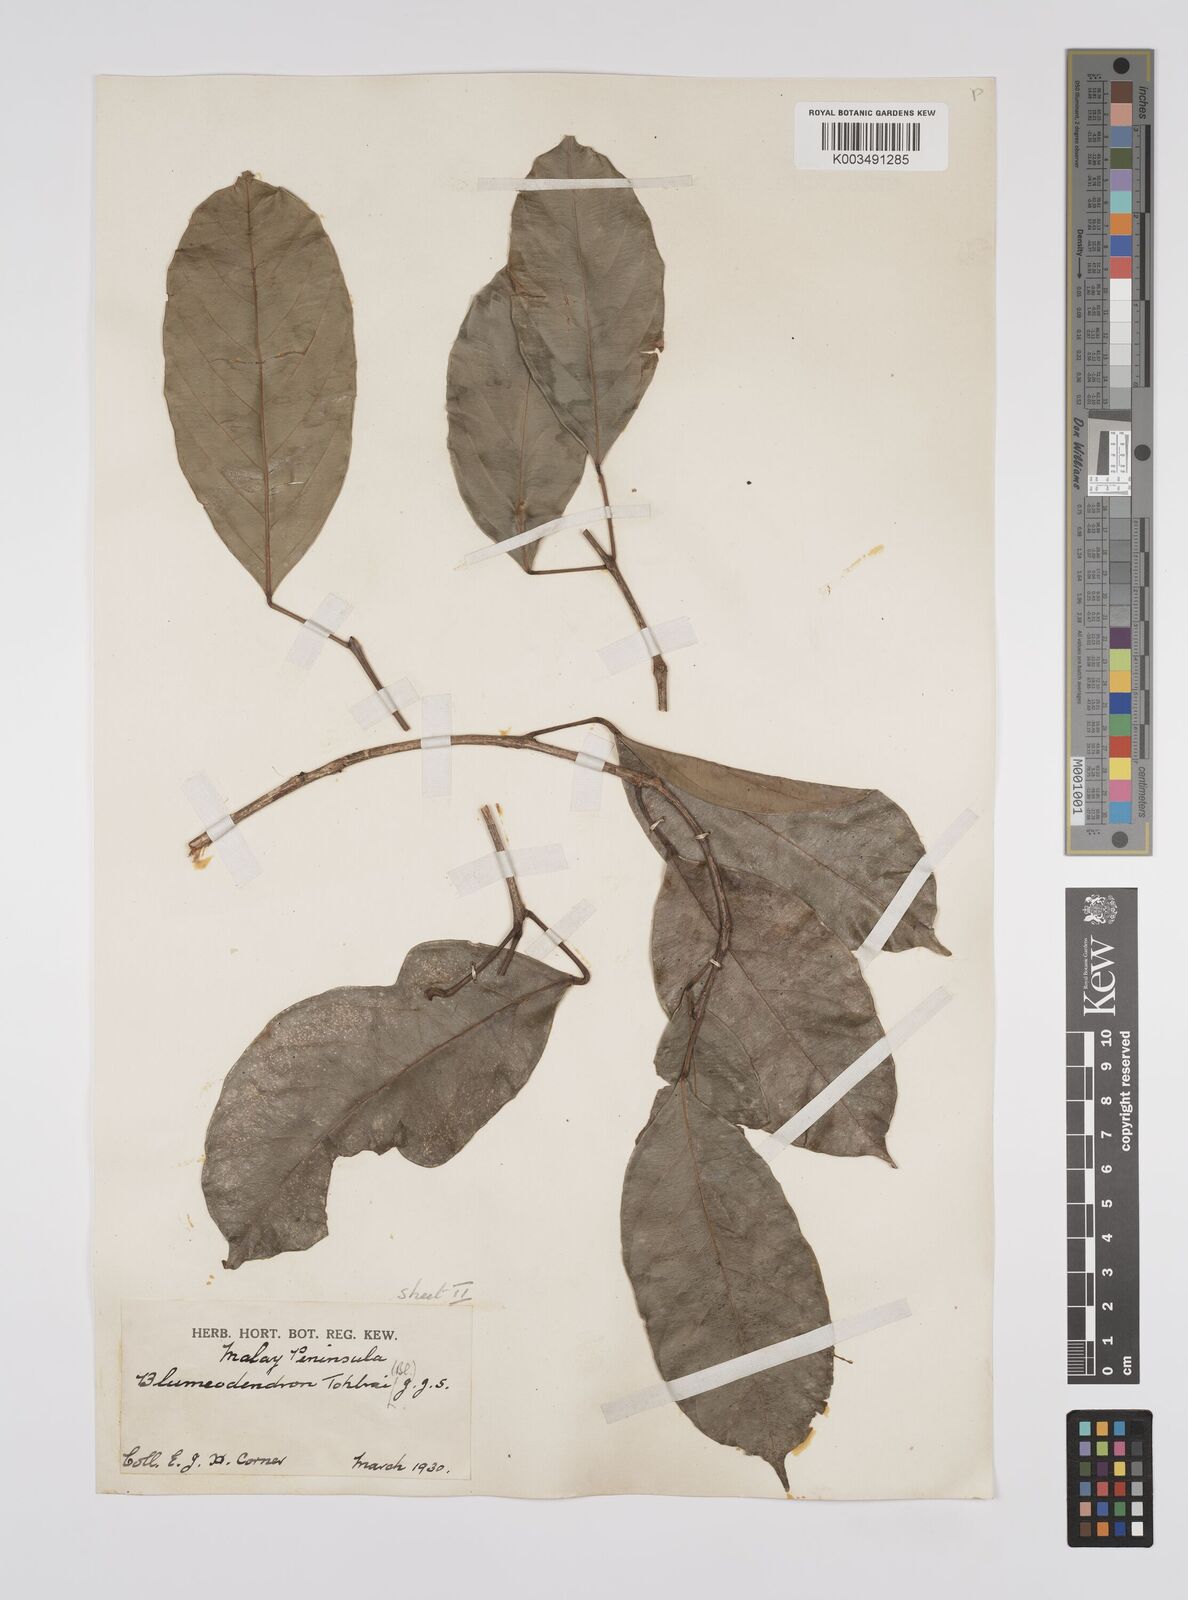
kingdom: Plantae
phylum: Tracheophyta
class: Magnoliopsida
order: Malpighiales
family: Euphorbiaceae
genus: Blumeodendron
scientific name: Blumeodendron tokbrai
